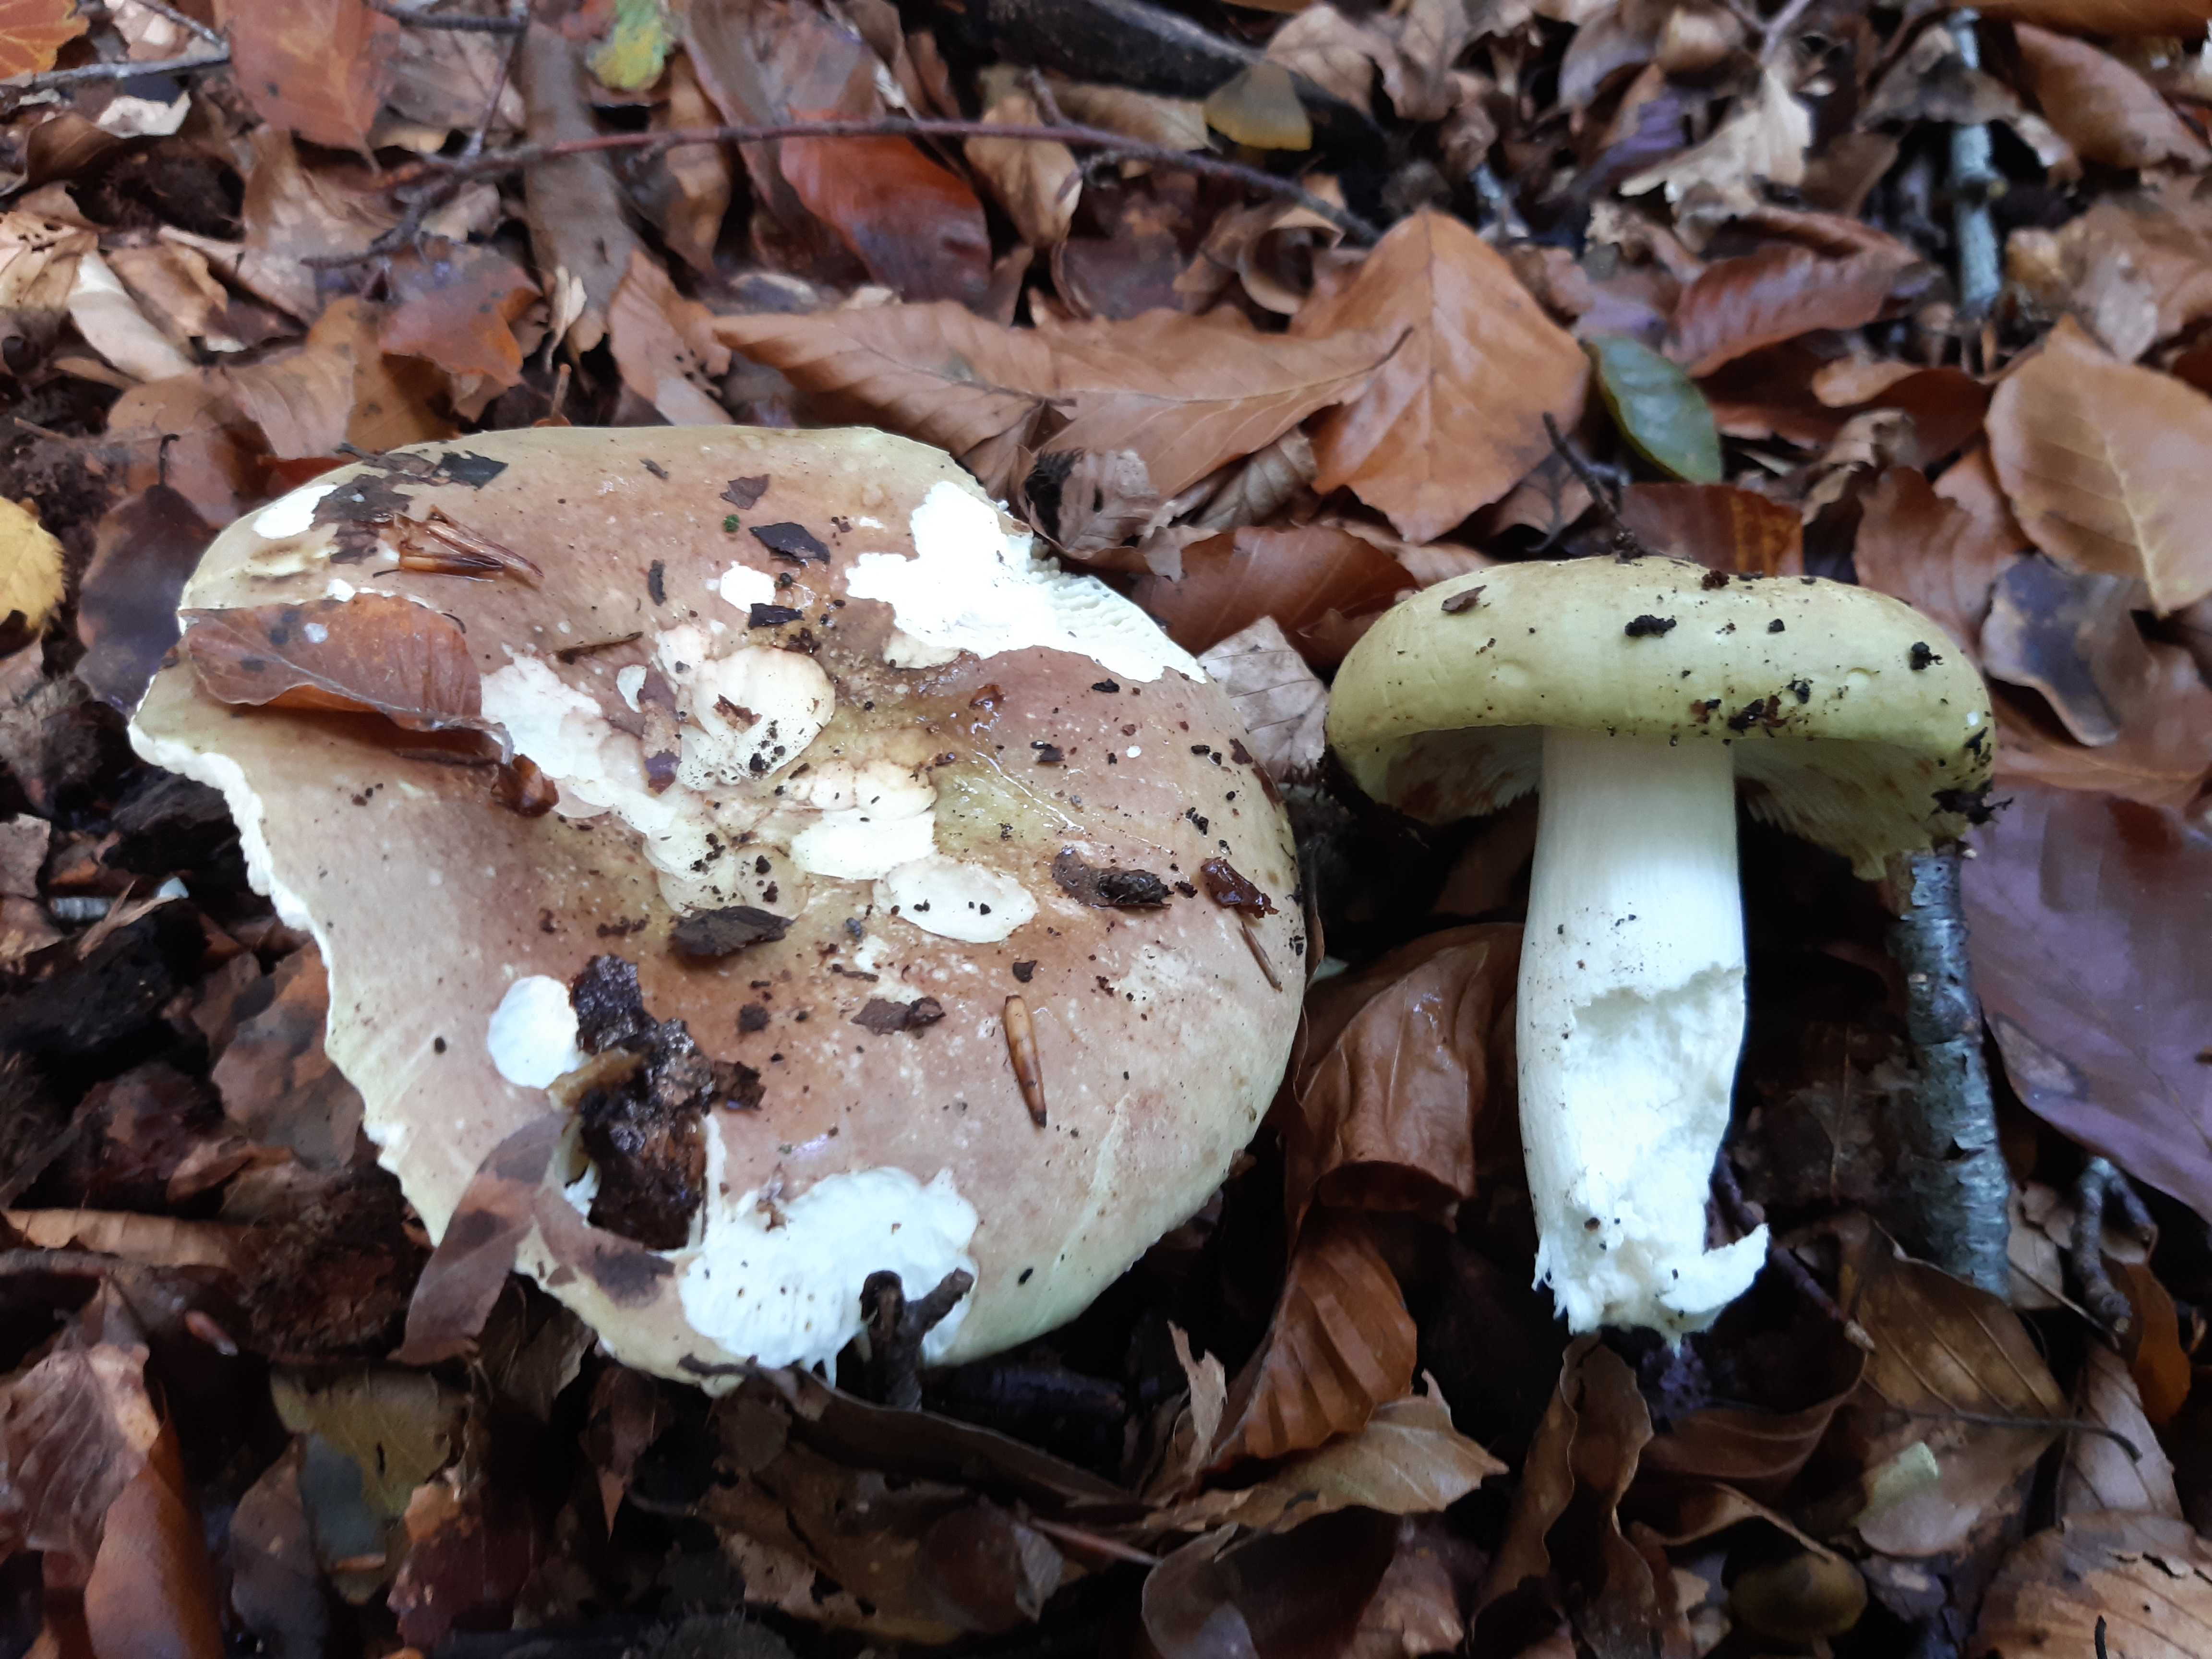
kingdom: Fungi
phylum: Basidiomycota
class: Agaricomycetes
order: Russulales
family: Russulaceae
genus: Russula
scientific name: Russula olivacea
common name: stor skørhat
